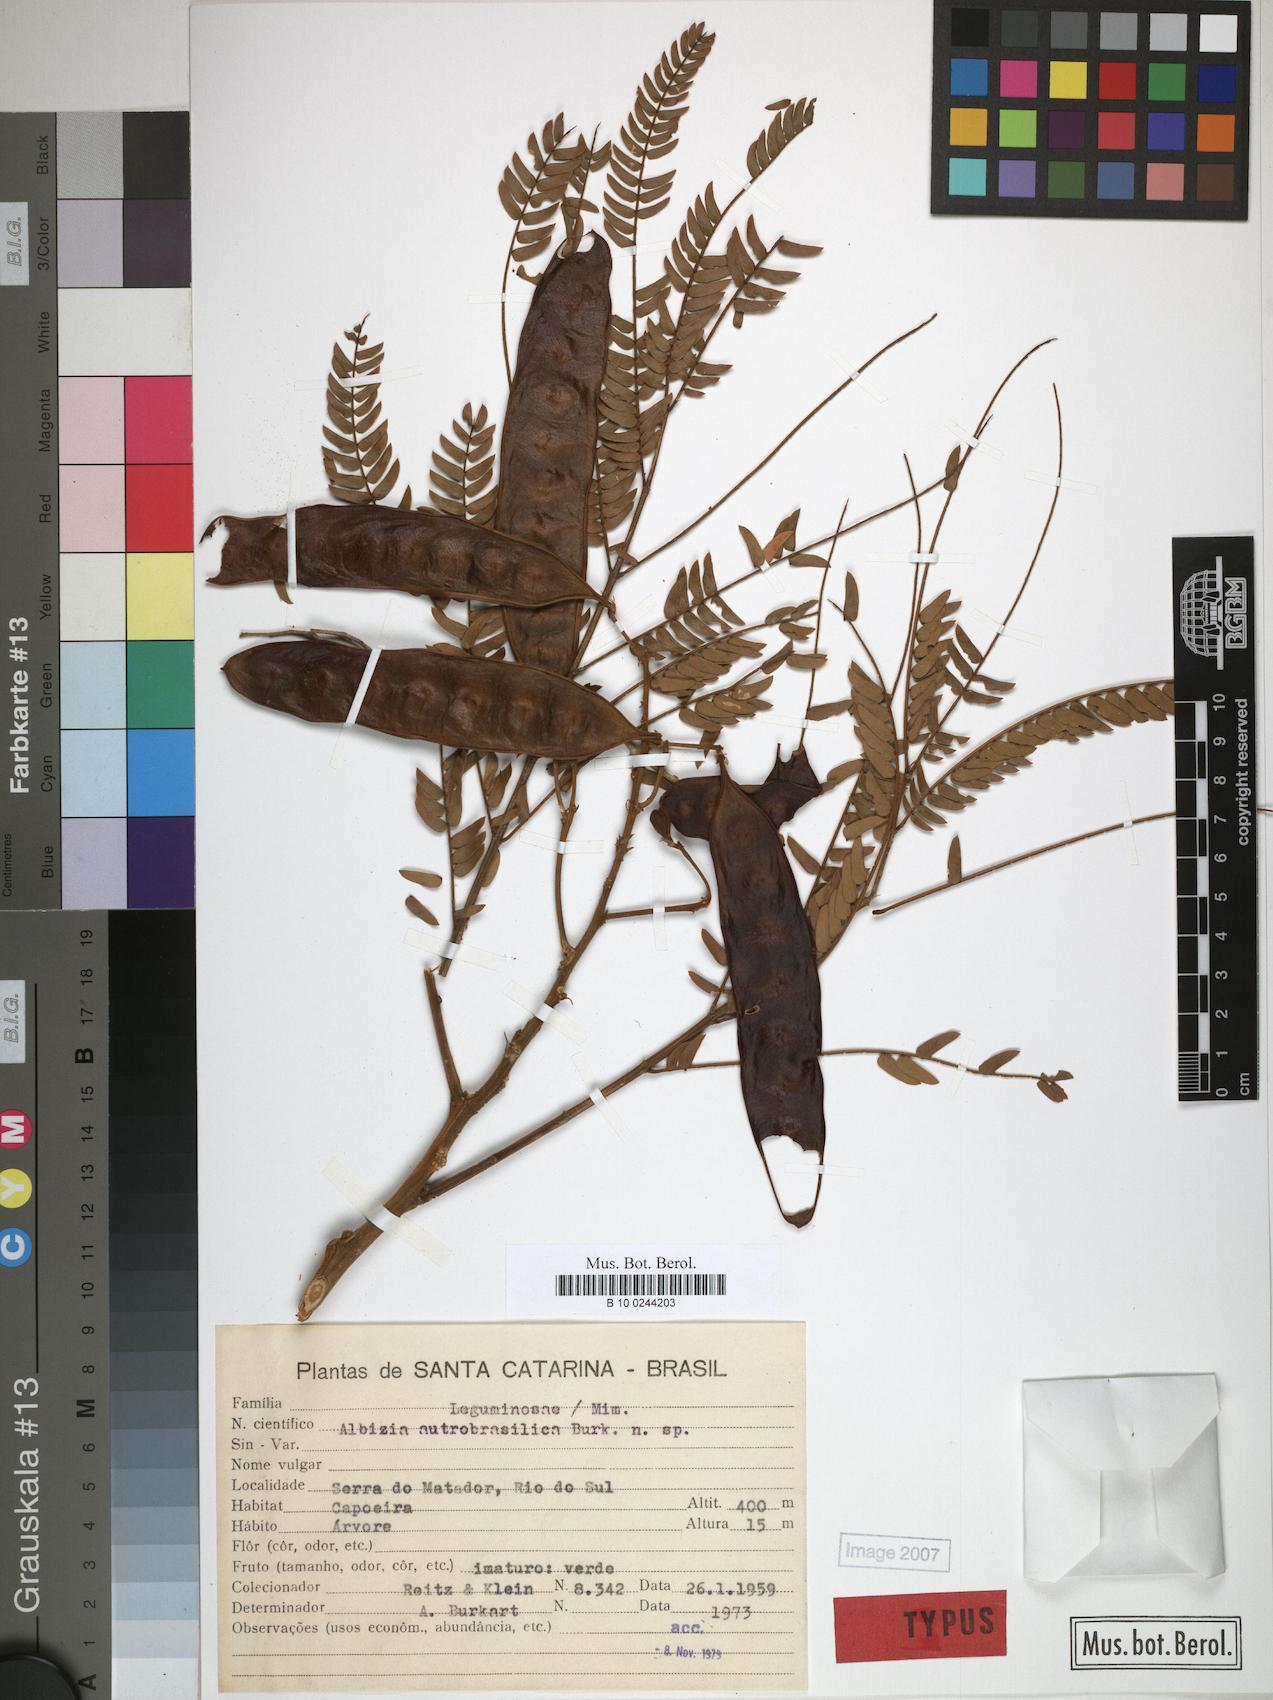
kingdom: Plantae
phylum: Tracheophyta
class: Magnoliopsida
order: Fabales
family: Fabaceae
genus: Albizia
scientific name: Albizia edwallii
